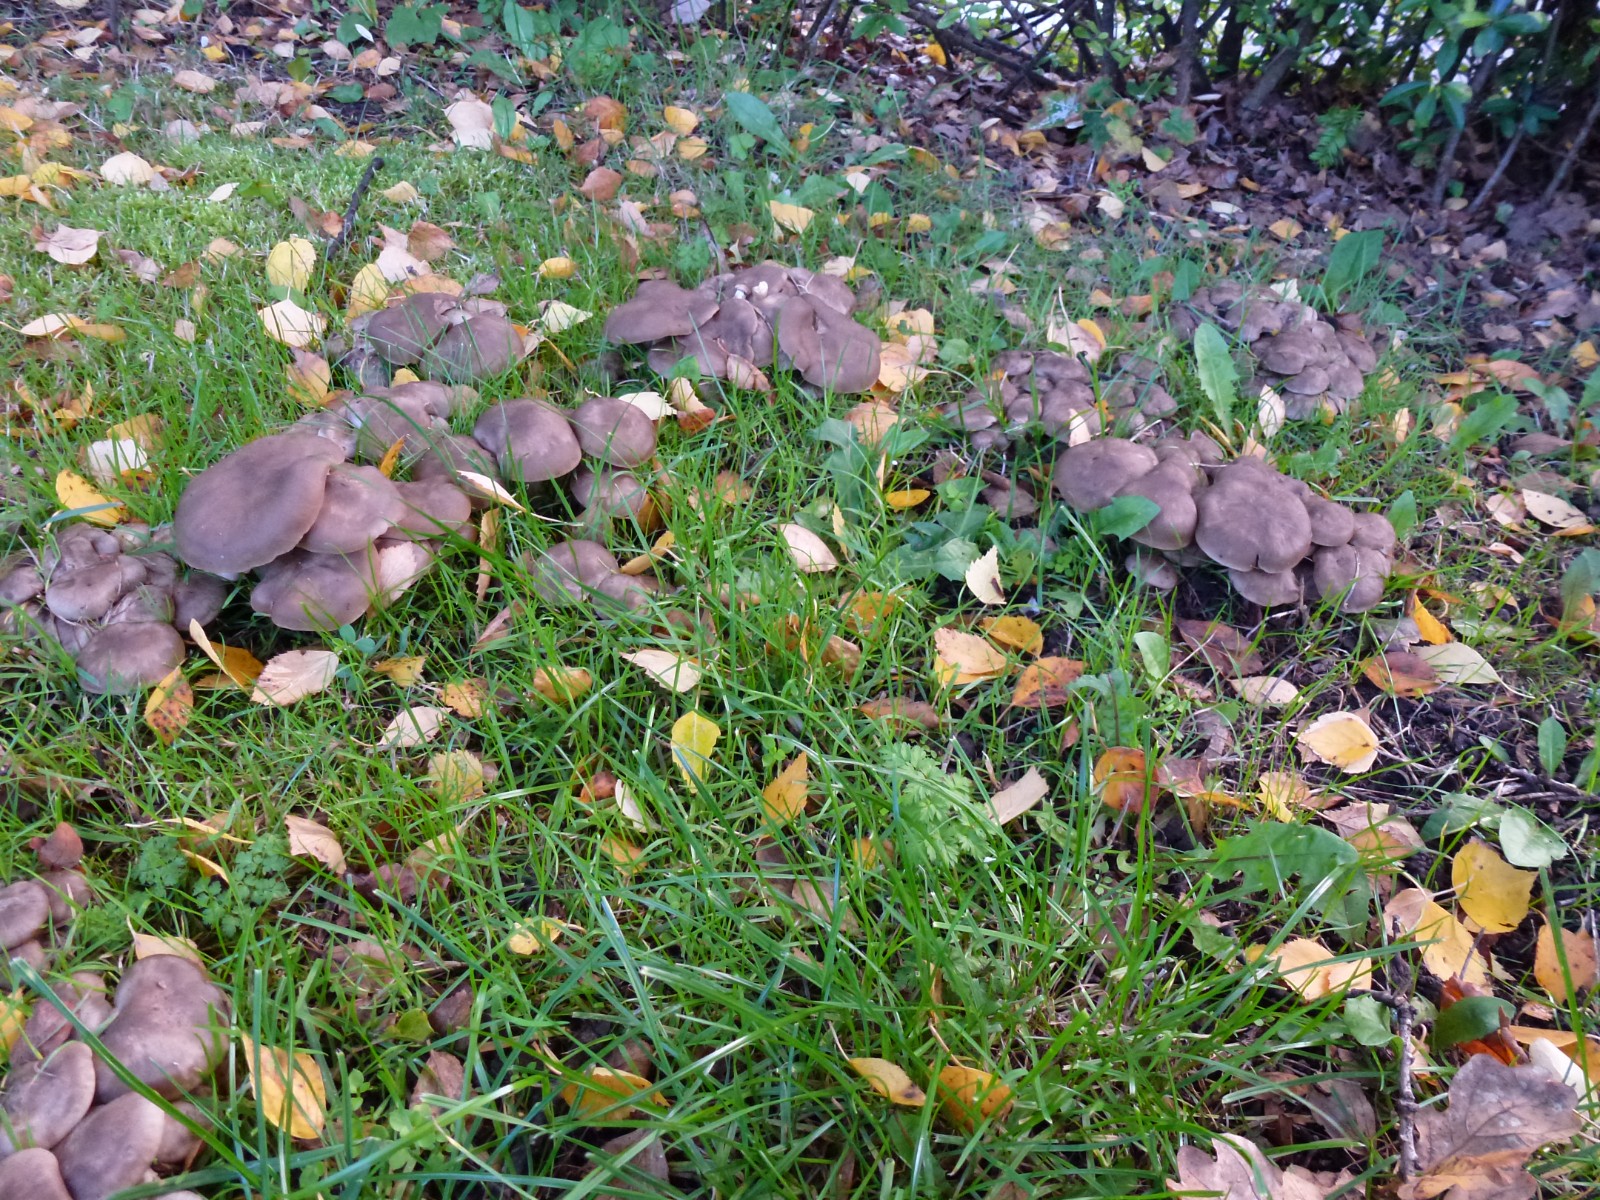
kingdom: Fungi
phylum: Basidiomycota
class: Agaricomycetes
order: Agaricales
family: Lyophyllaceae
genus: Lyophyllum
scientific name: Lyophyllum decastes
